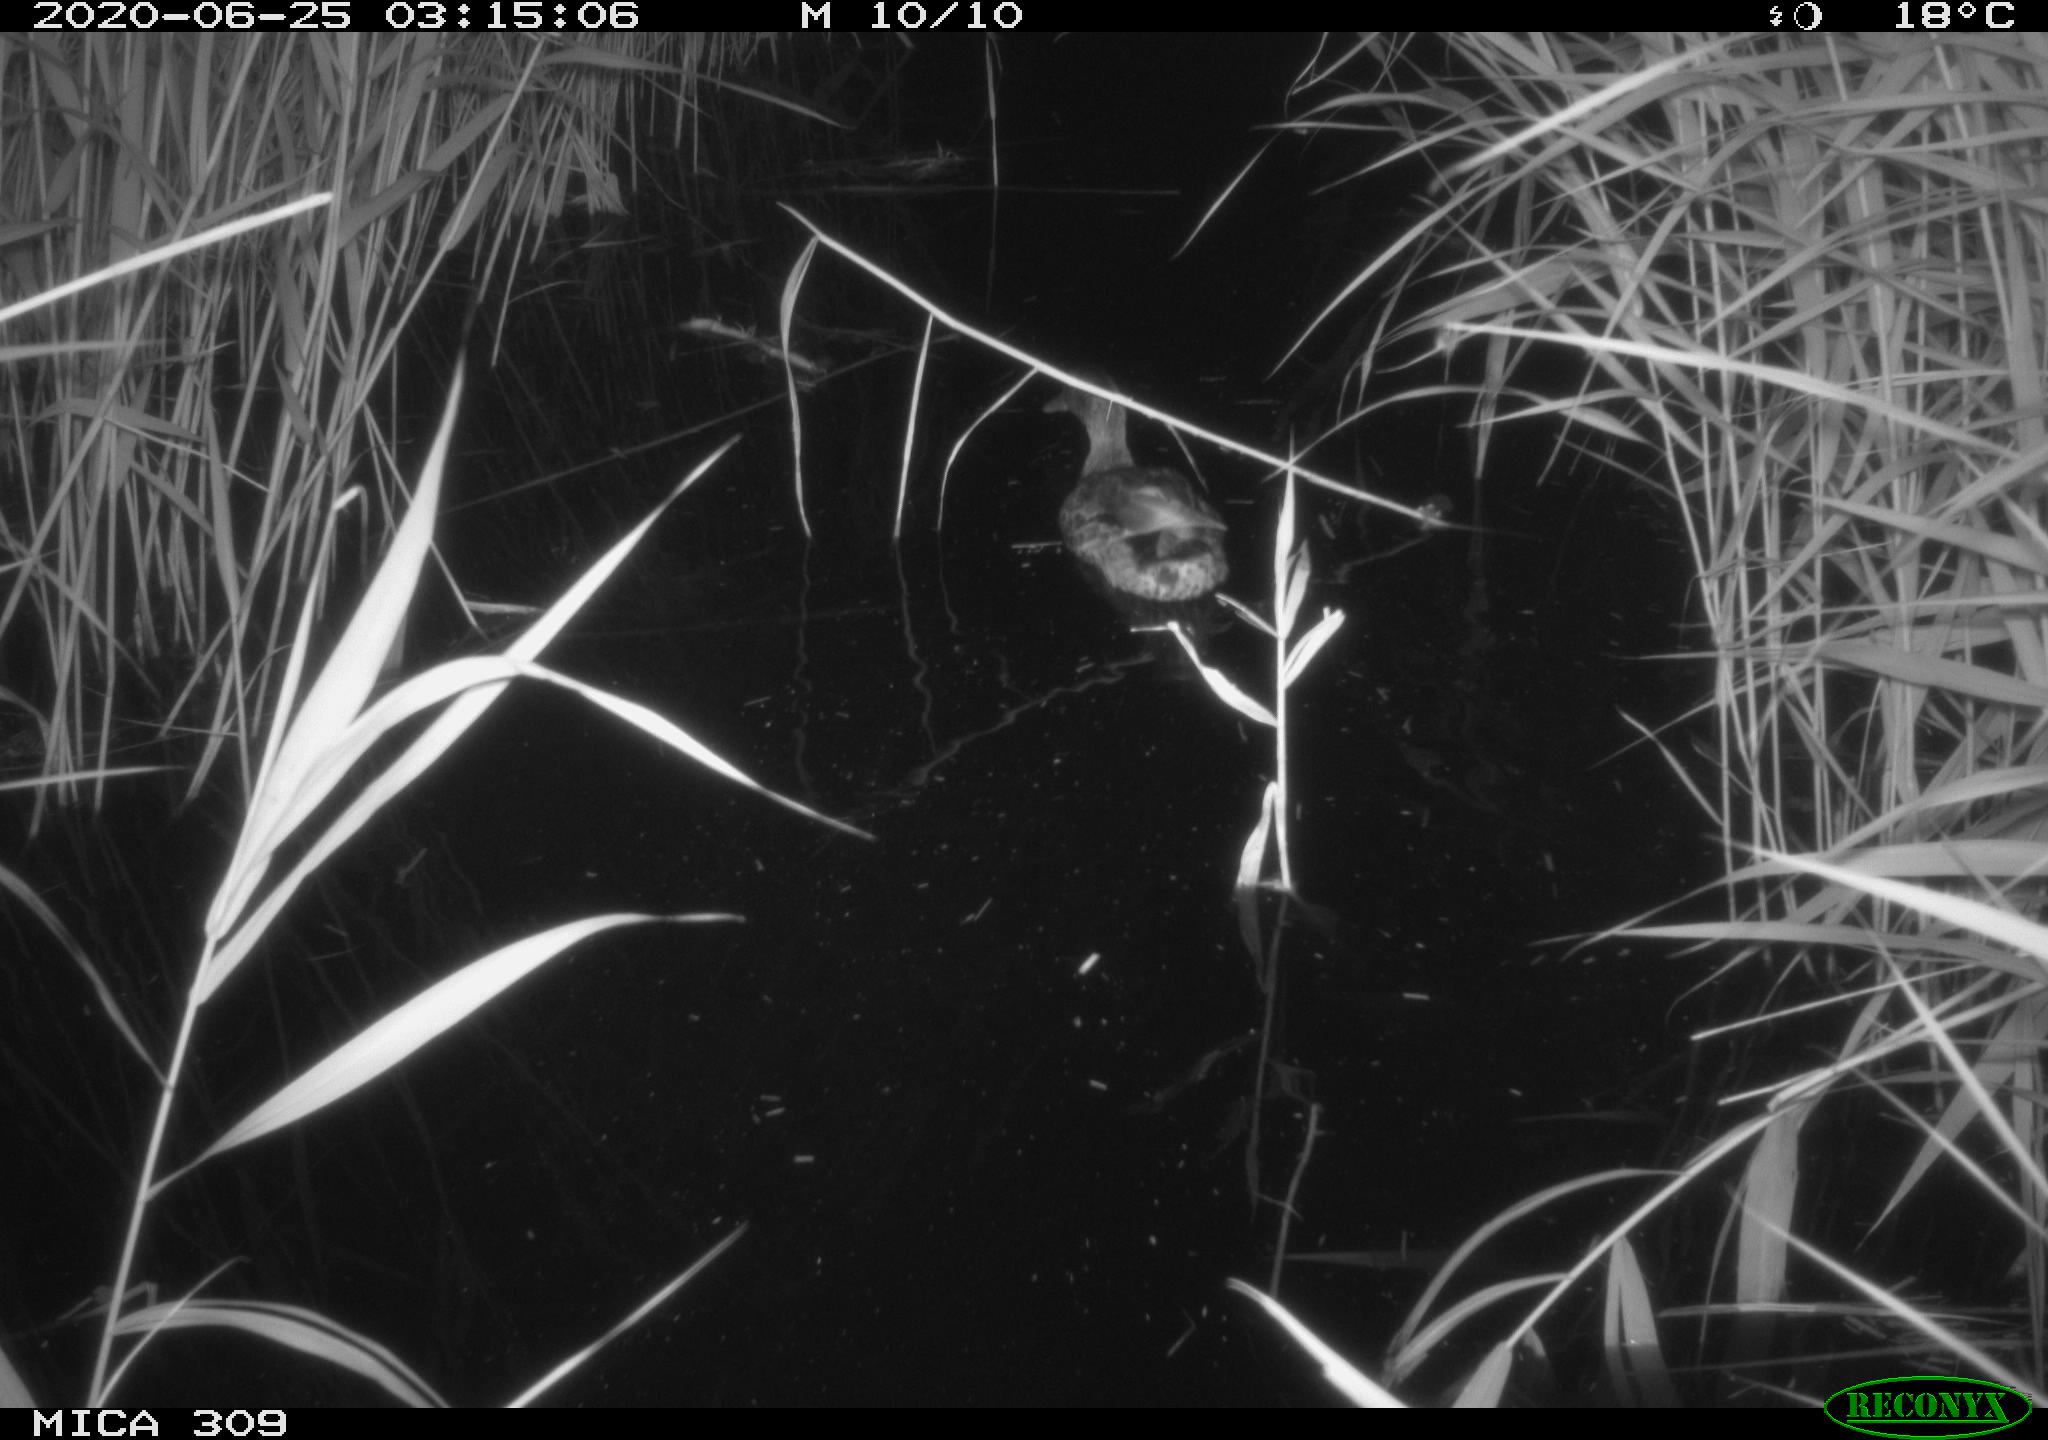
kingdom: Animalia
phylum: Chordata
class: Aves
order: Anseriformes
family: Anatidae
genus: Anas
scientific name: Anas platyrhynchos
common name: Mallard
